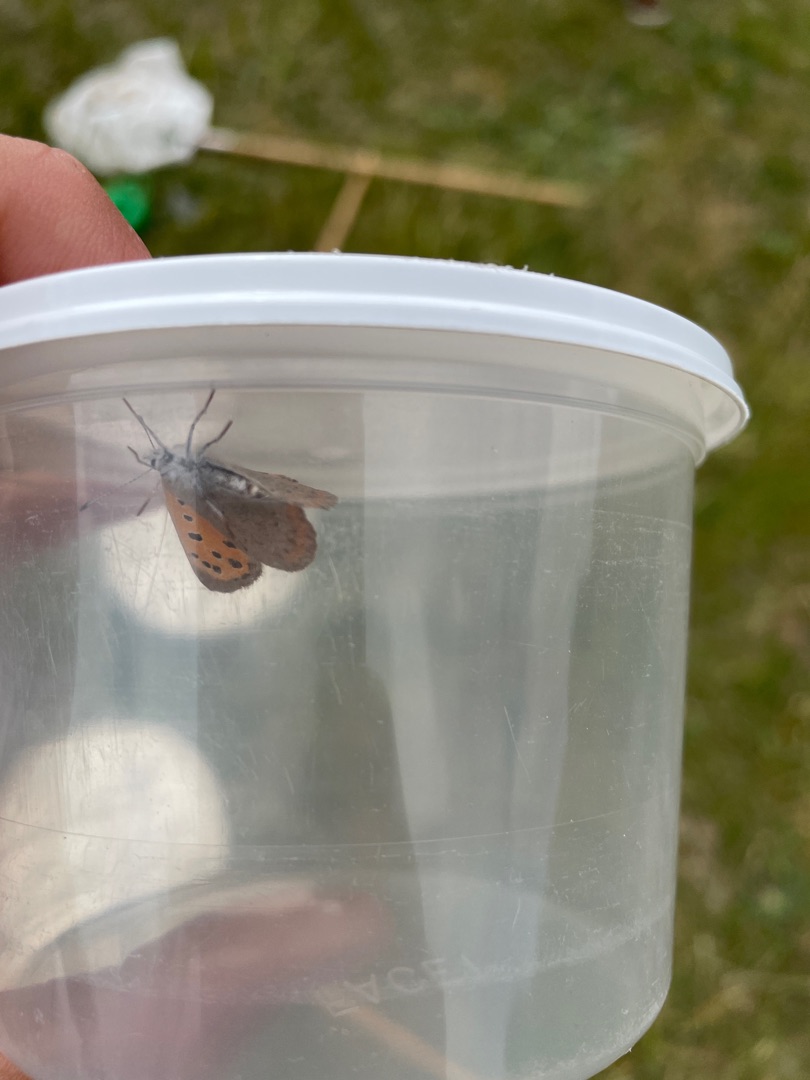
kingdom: Animalia
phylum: Arthropoda
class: Insecta
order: Lepidoptera
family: Lycaenidae
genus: Lycaena
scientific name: Lycaena phlaeas
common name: Lille ildfugl
